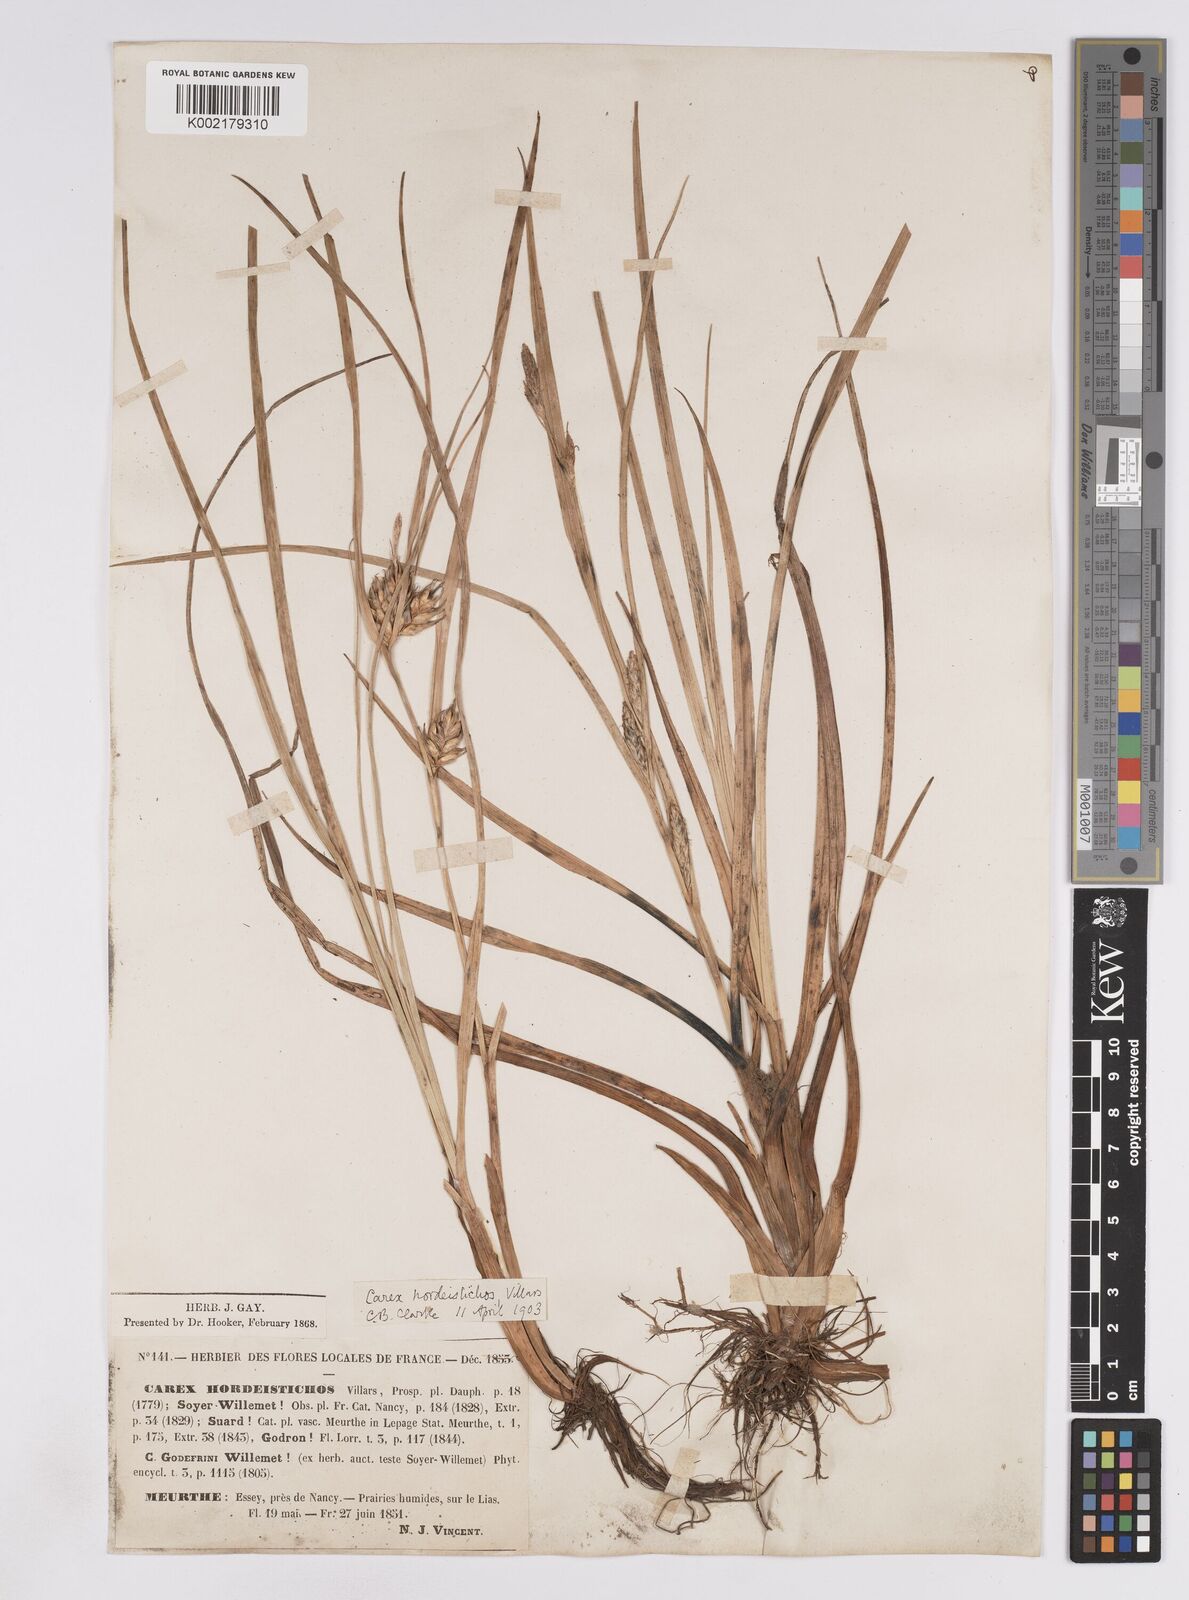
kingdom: Plantae
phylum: Tracheophyta
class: Liliopsida
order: Poales
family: Cyperaceae
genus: Carex
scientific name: Carex hordeistichos
